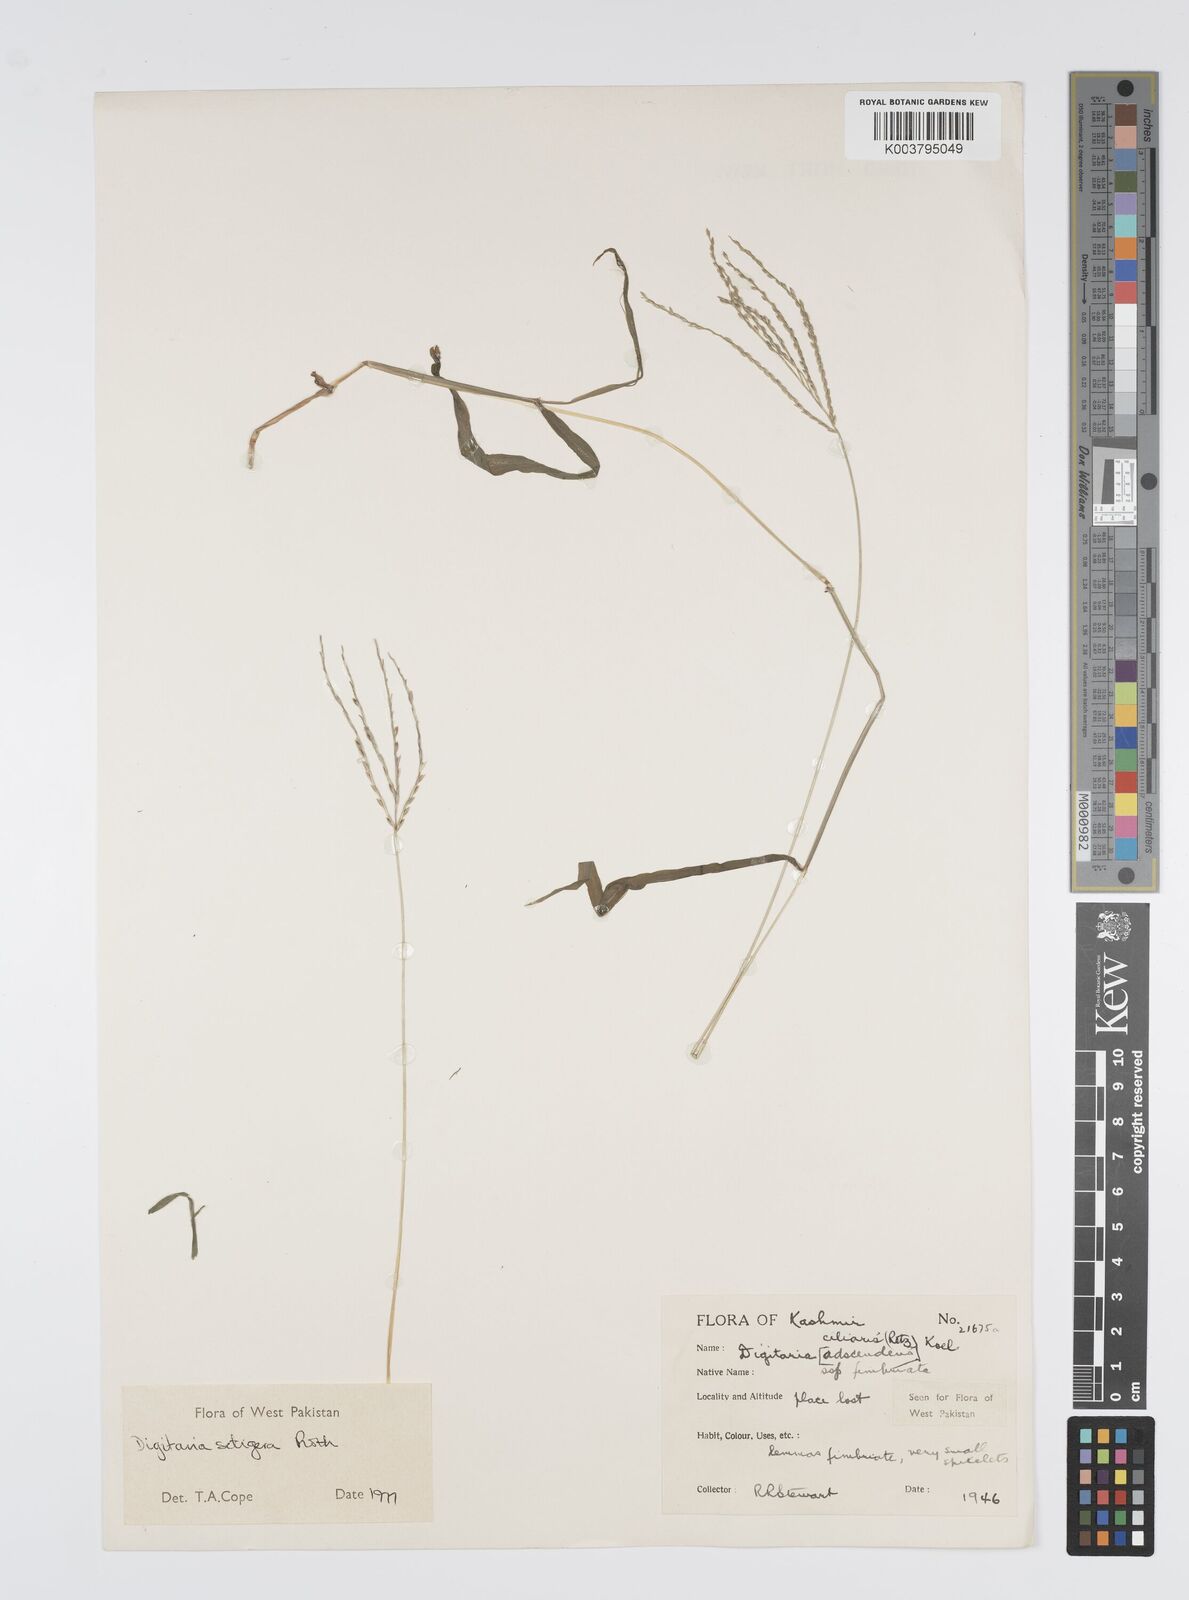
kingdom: Plantae
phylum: Tracheophyta
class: Liliopsida
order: Poales
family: Poaceae
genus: Digitaria
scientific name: Digitaria setigera
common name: East indian crabgrass
